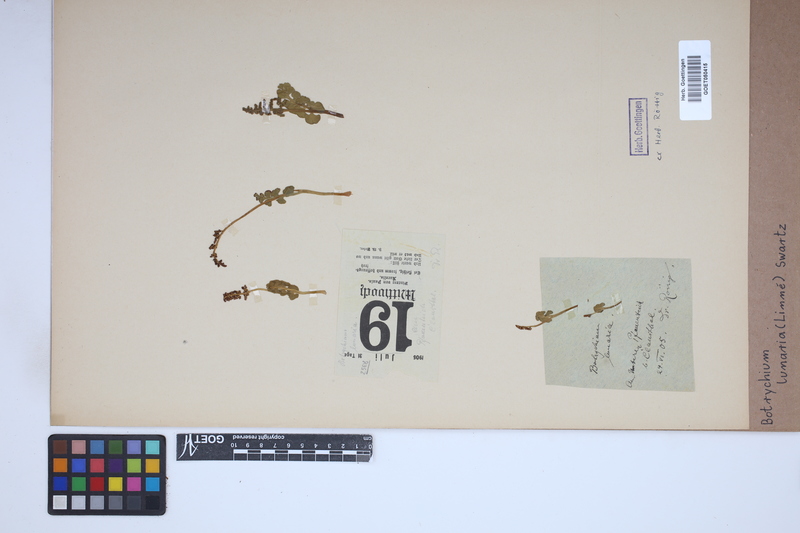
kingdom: Plantae
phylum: Tracheophyta
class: Polypodiopsida
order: Ophioglossales
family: Ophioglossaceae
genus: Botrychium
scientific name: Botrychium lunaria
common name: Moonwort
